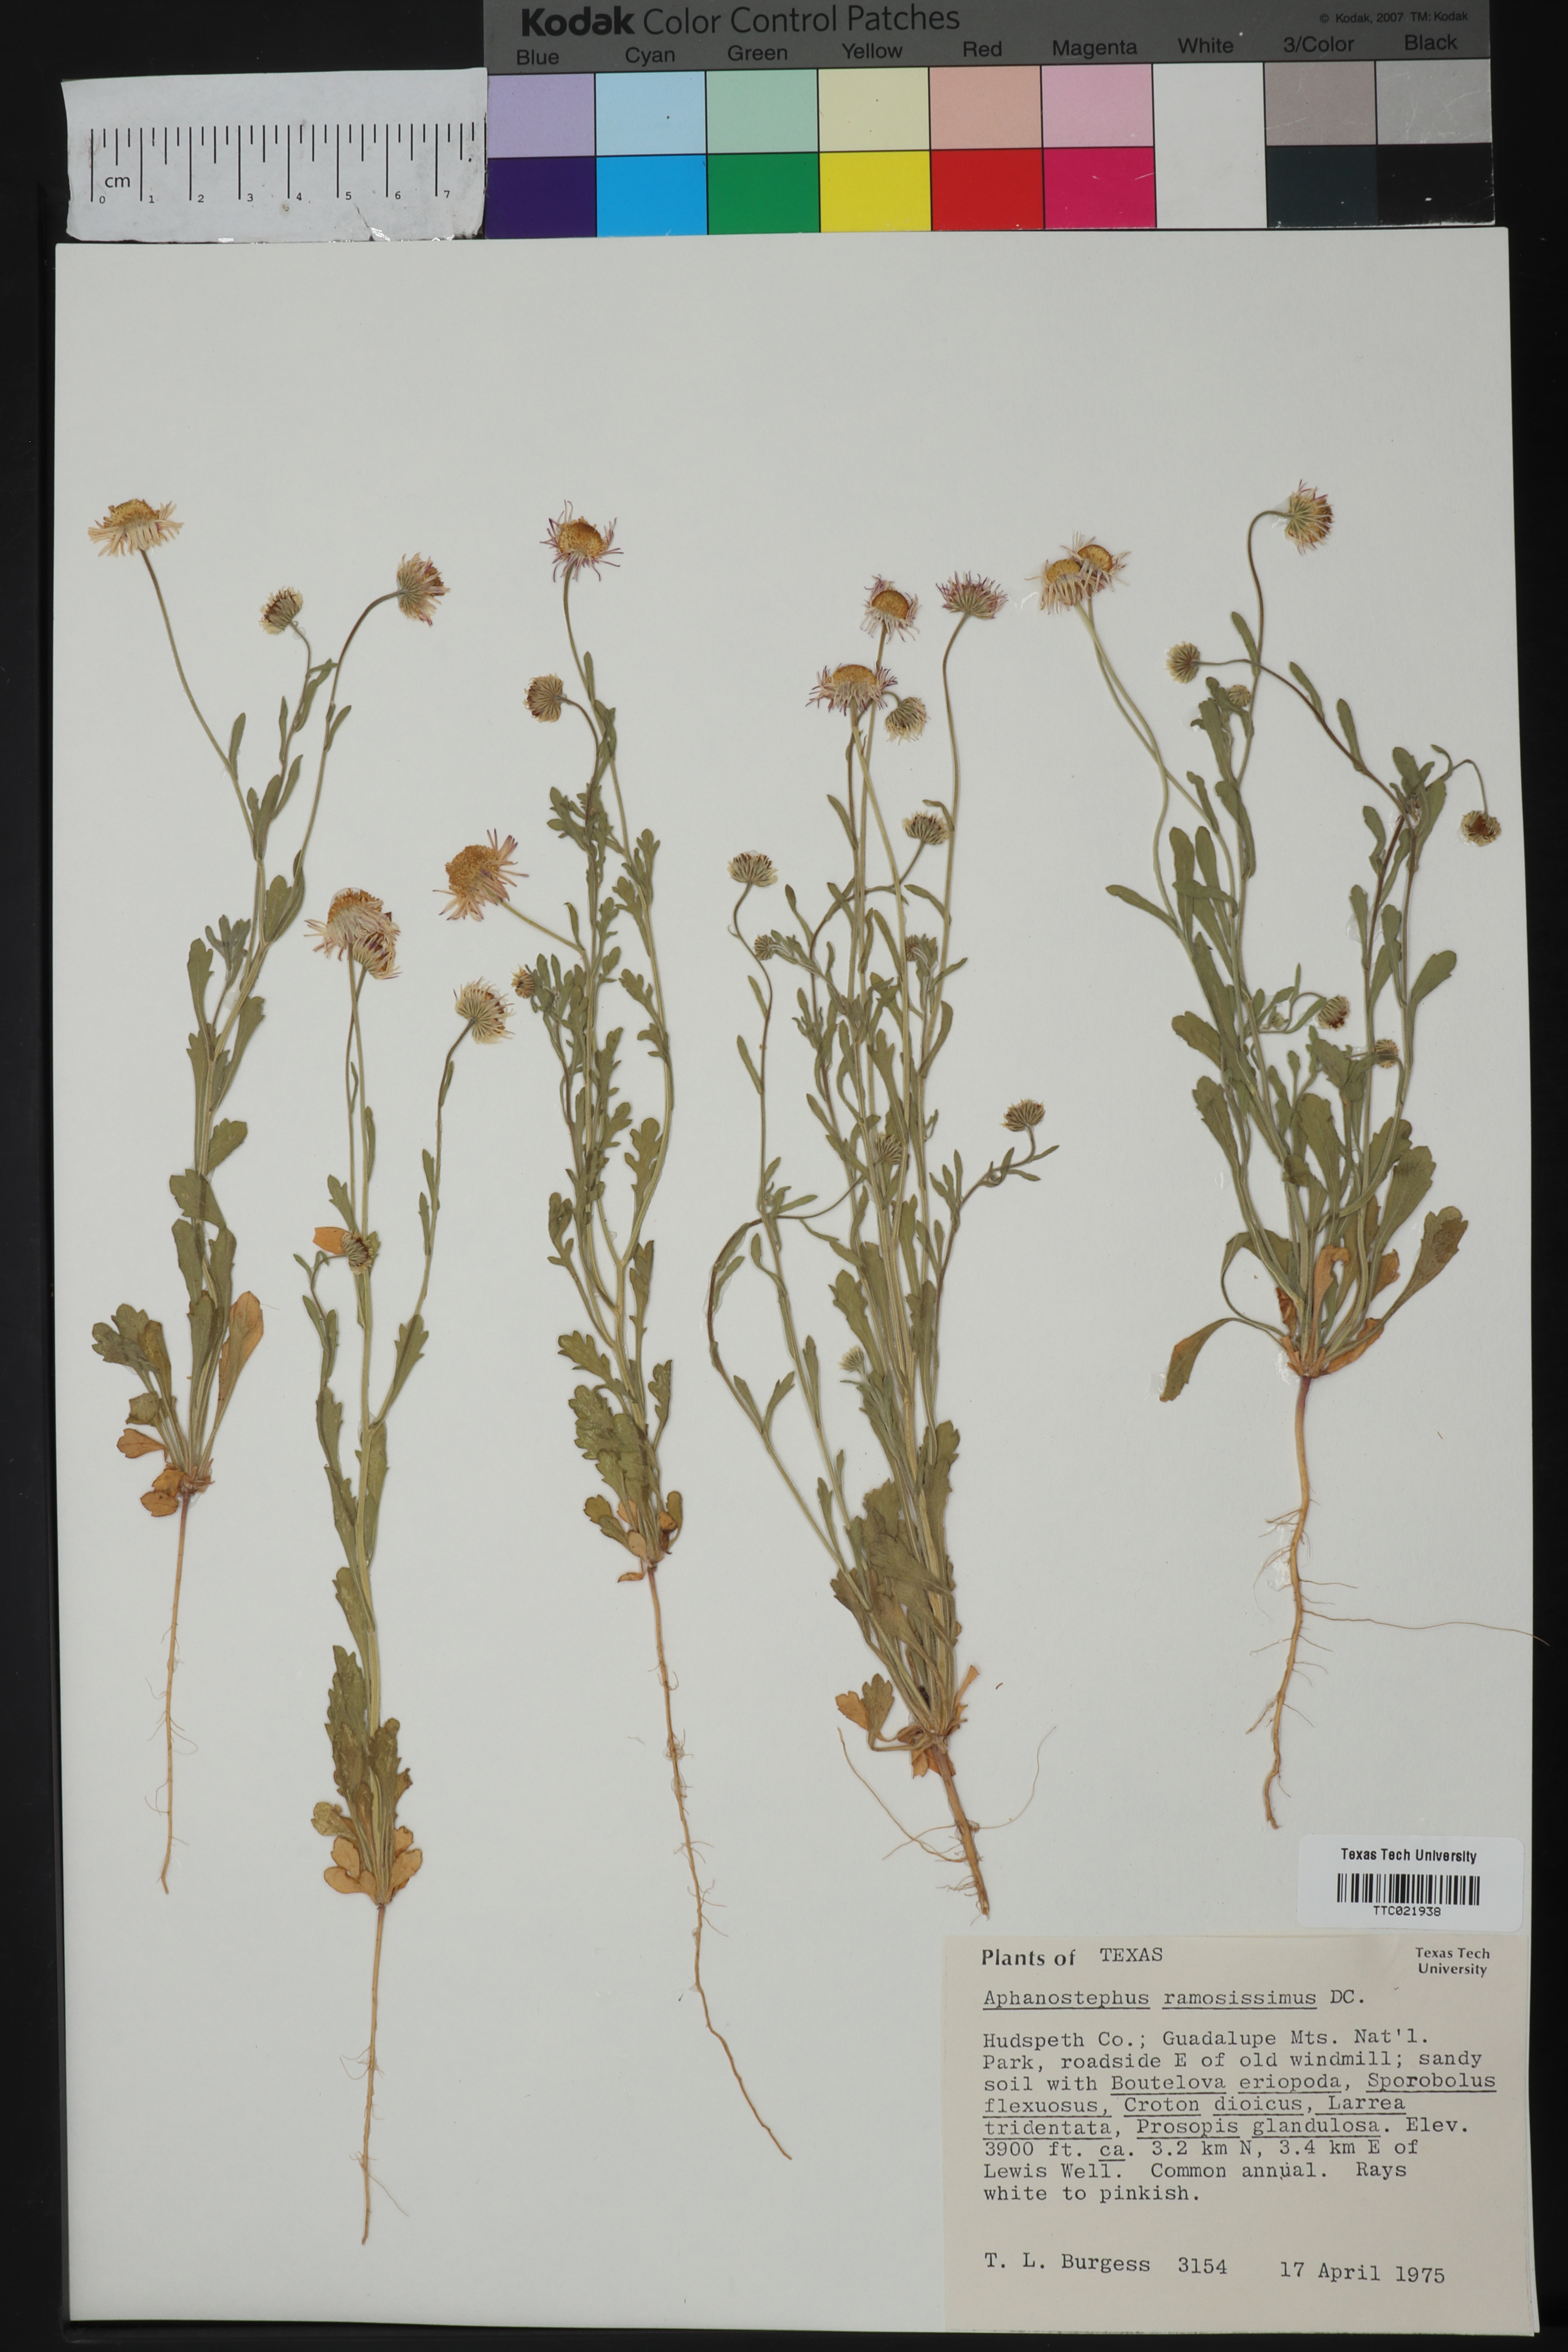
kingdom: Plantae
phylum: Tracheophyta
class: Magnoliopsida
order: Asterales
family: Asteraceae
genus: Aphanostephus
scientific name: Aphanostephus ramosissimus
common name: Plains lazy daisy
